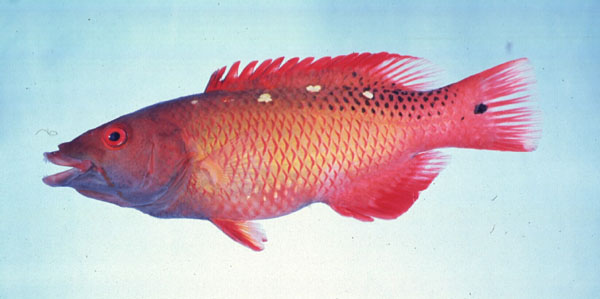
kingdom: Animalia
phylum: Chordata
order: Perciformes
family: Labridae
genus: Bodianus
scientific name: Bodianus diana
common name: Diana's hogfish
